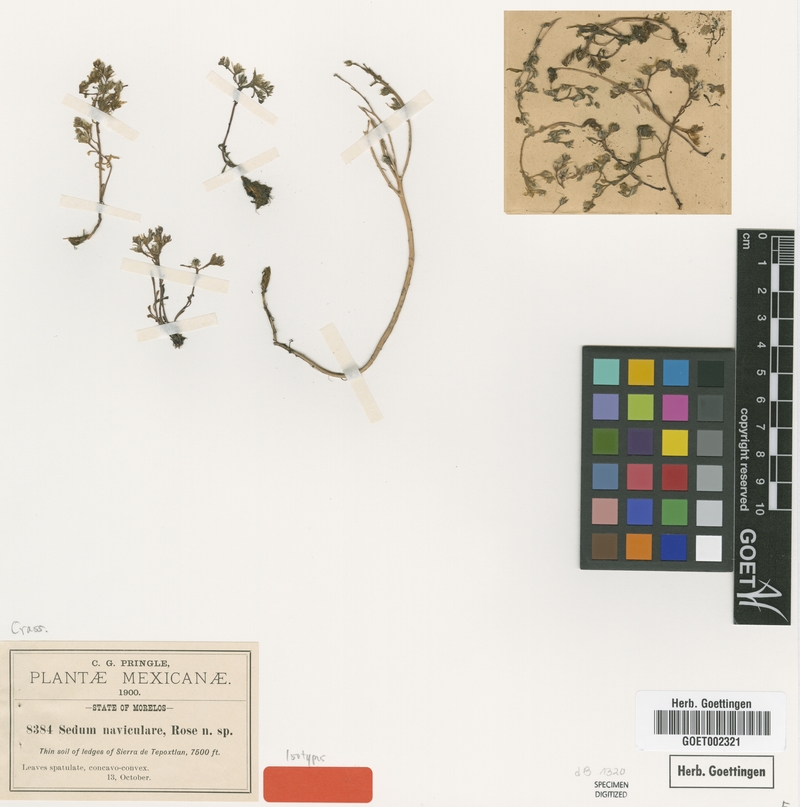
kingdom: Plantae
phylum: Tracheophyta
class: Magnoliopsida
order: Saxifragales
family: Crassulaceae
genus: Sedum
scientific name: Sedum jaliscanum
